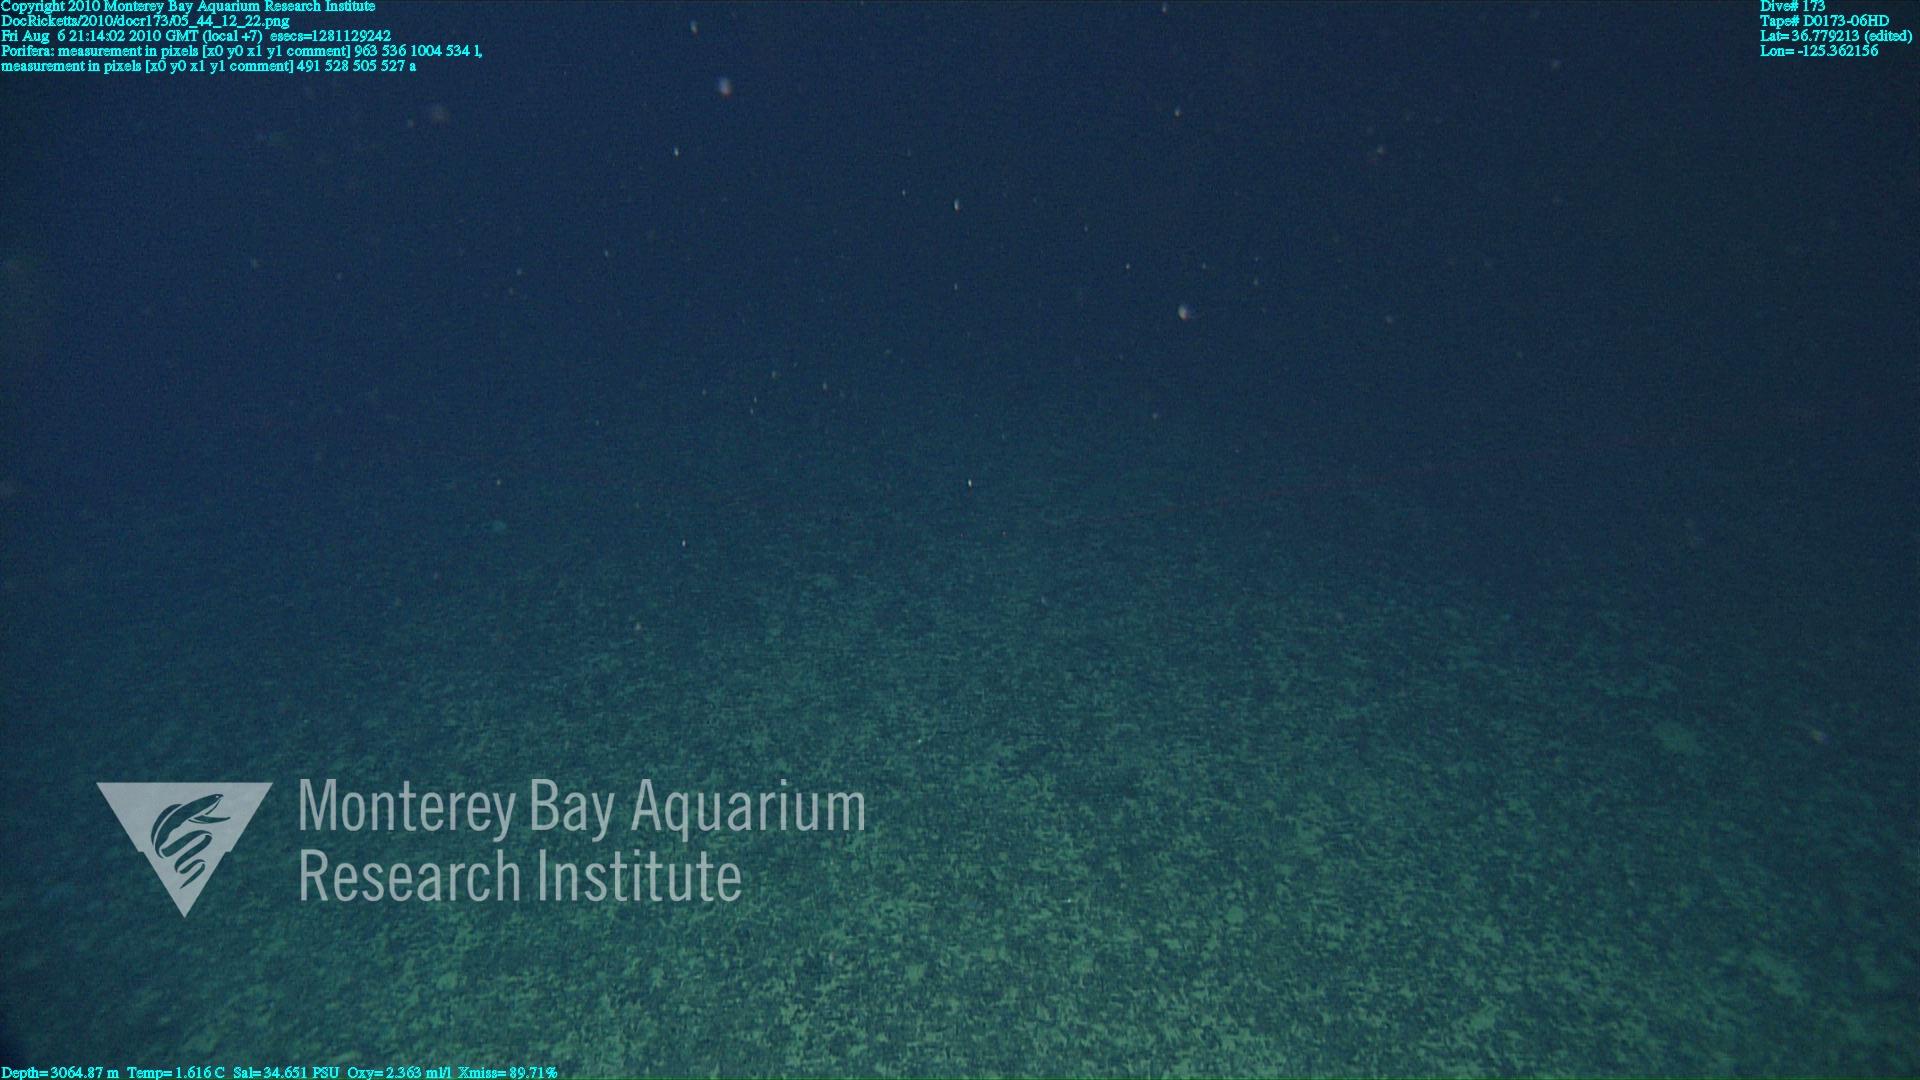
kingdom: Animalia
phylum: Porifera
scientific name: Porifera
